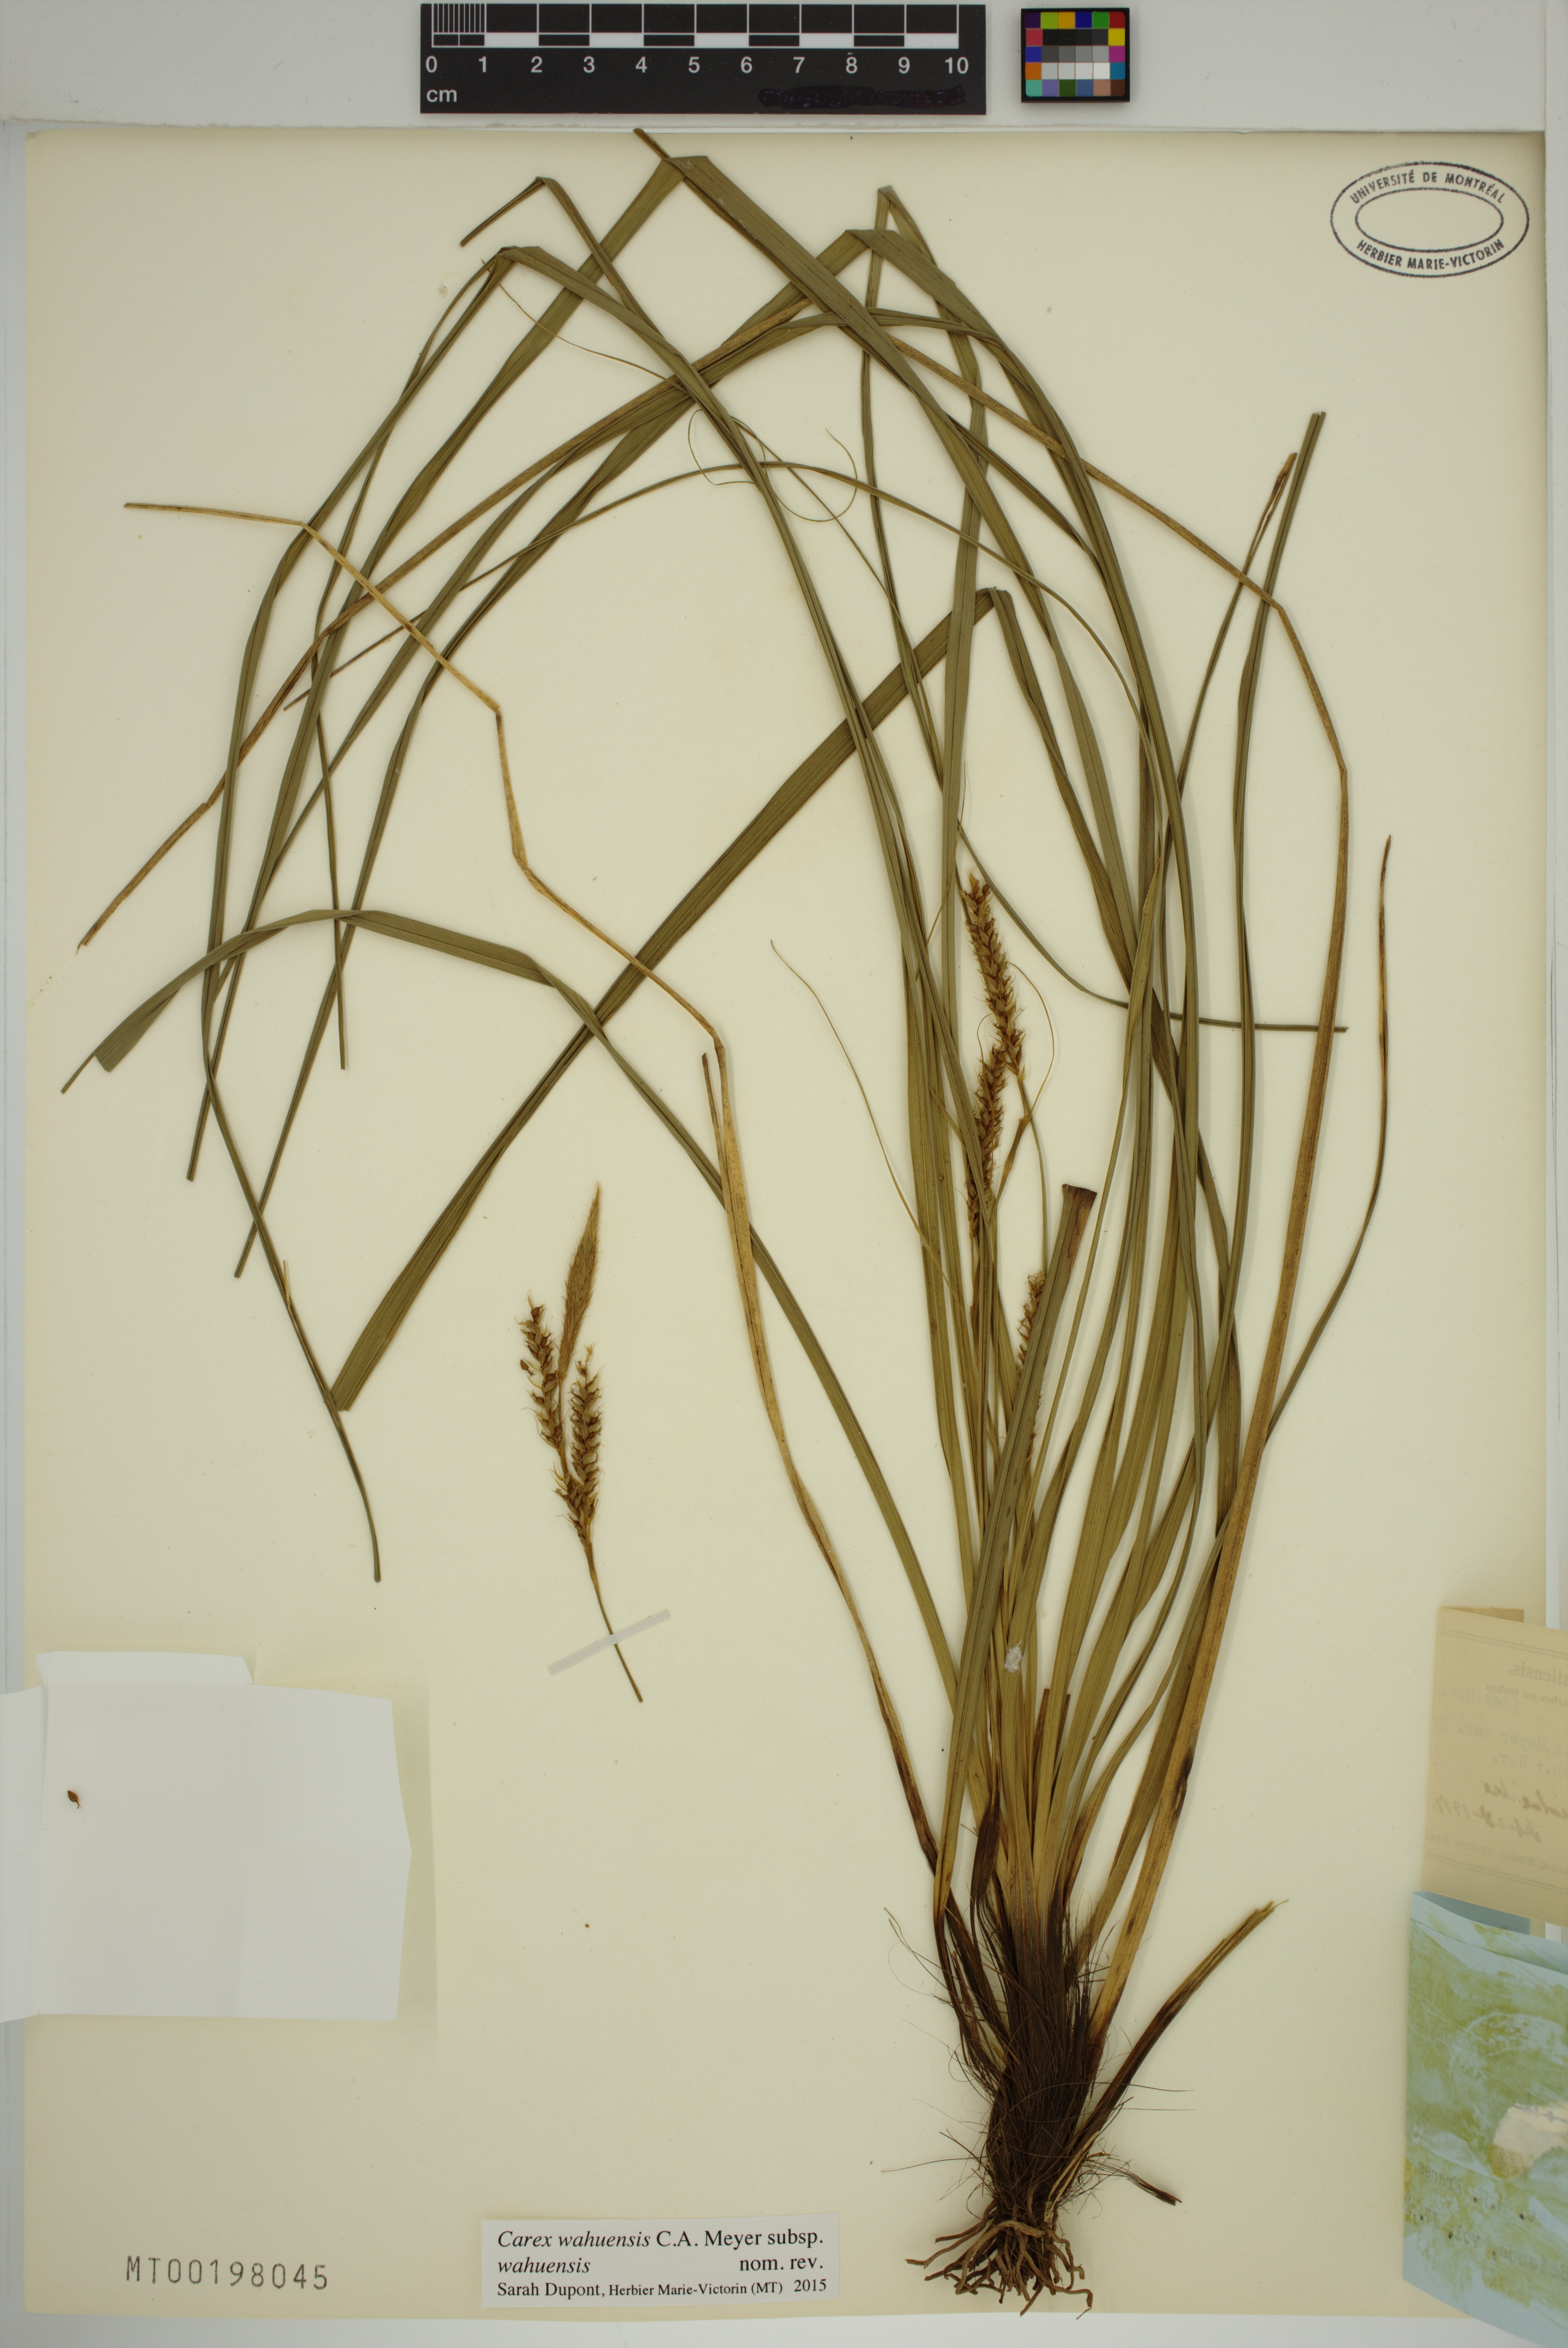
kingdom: Plantae
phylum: Tracheophyta
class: Liliopsida
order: Poales
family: Cyperaceae
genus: Carex
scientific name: Carex wahuensis
